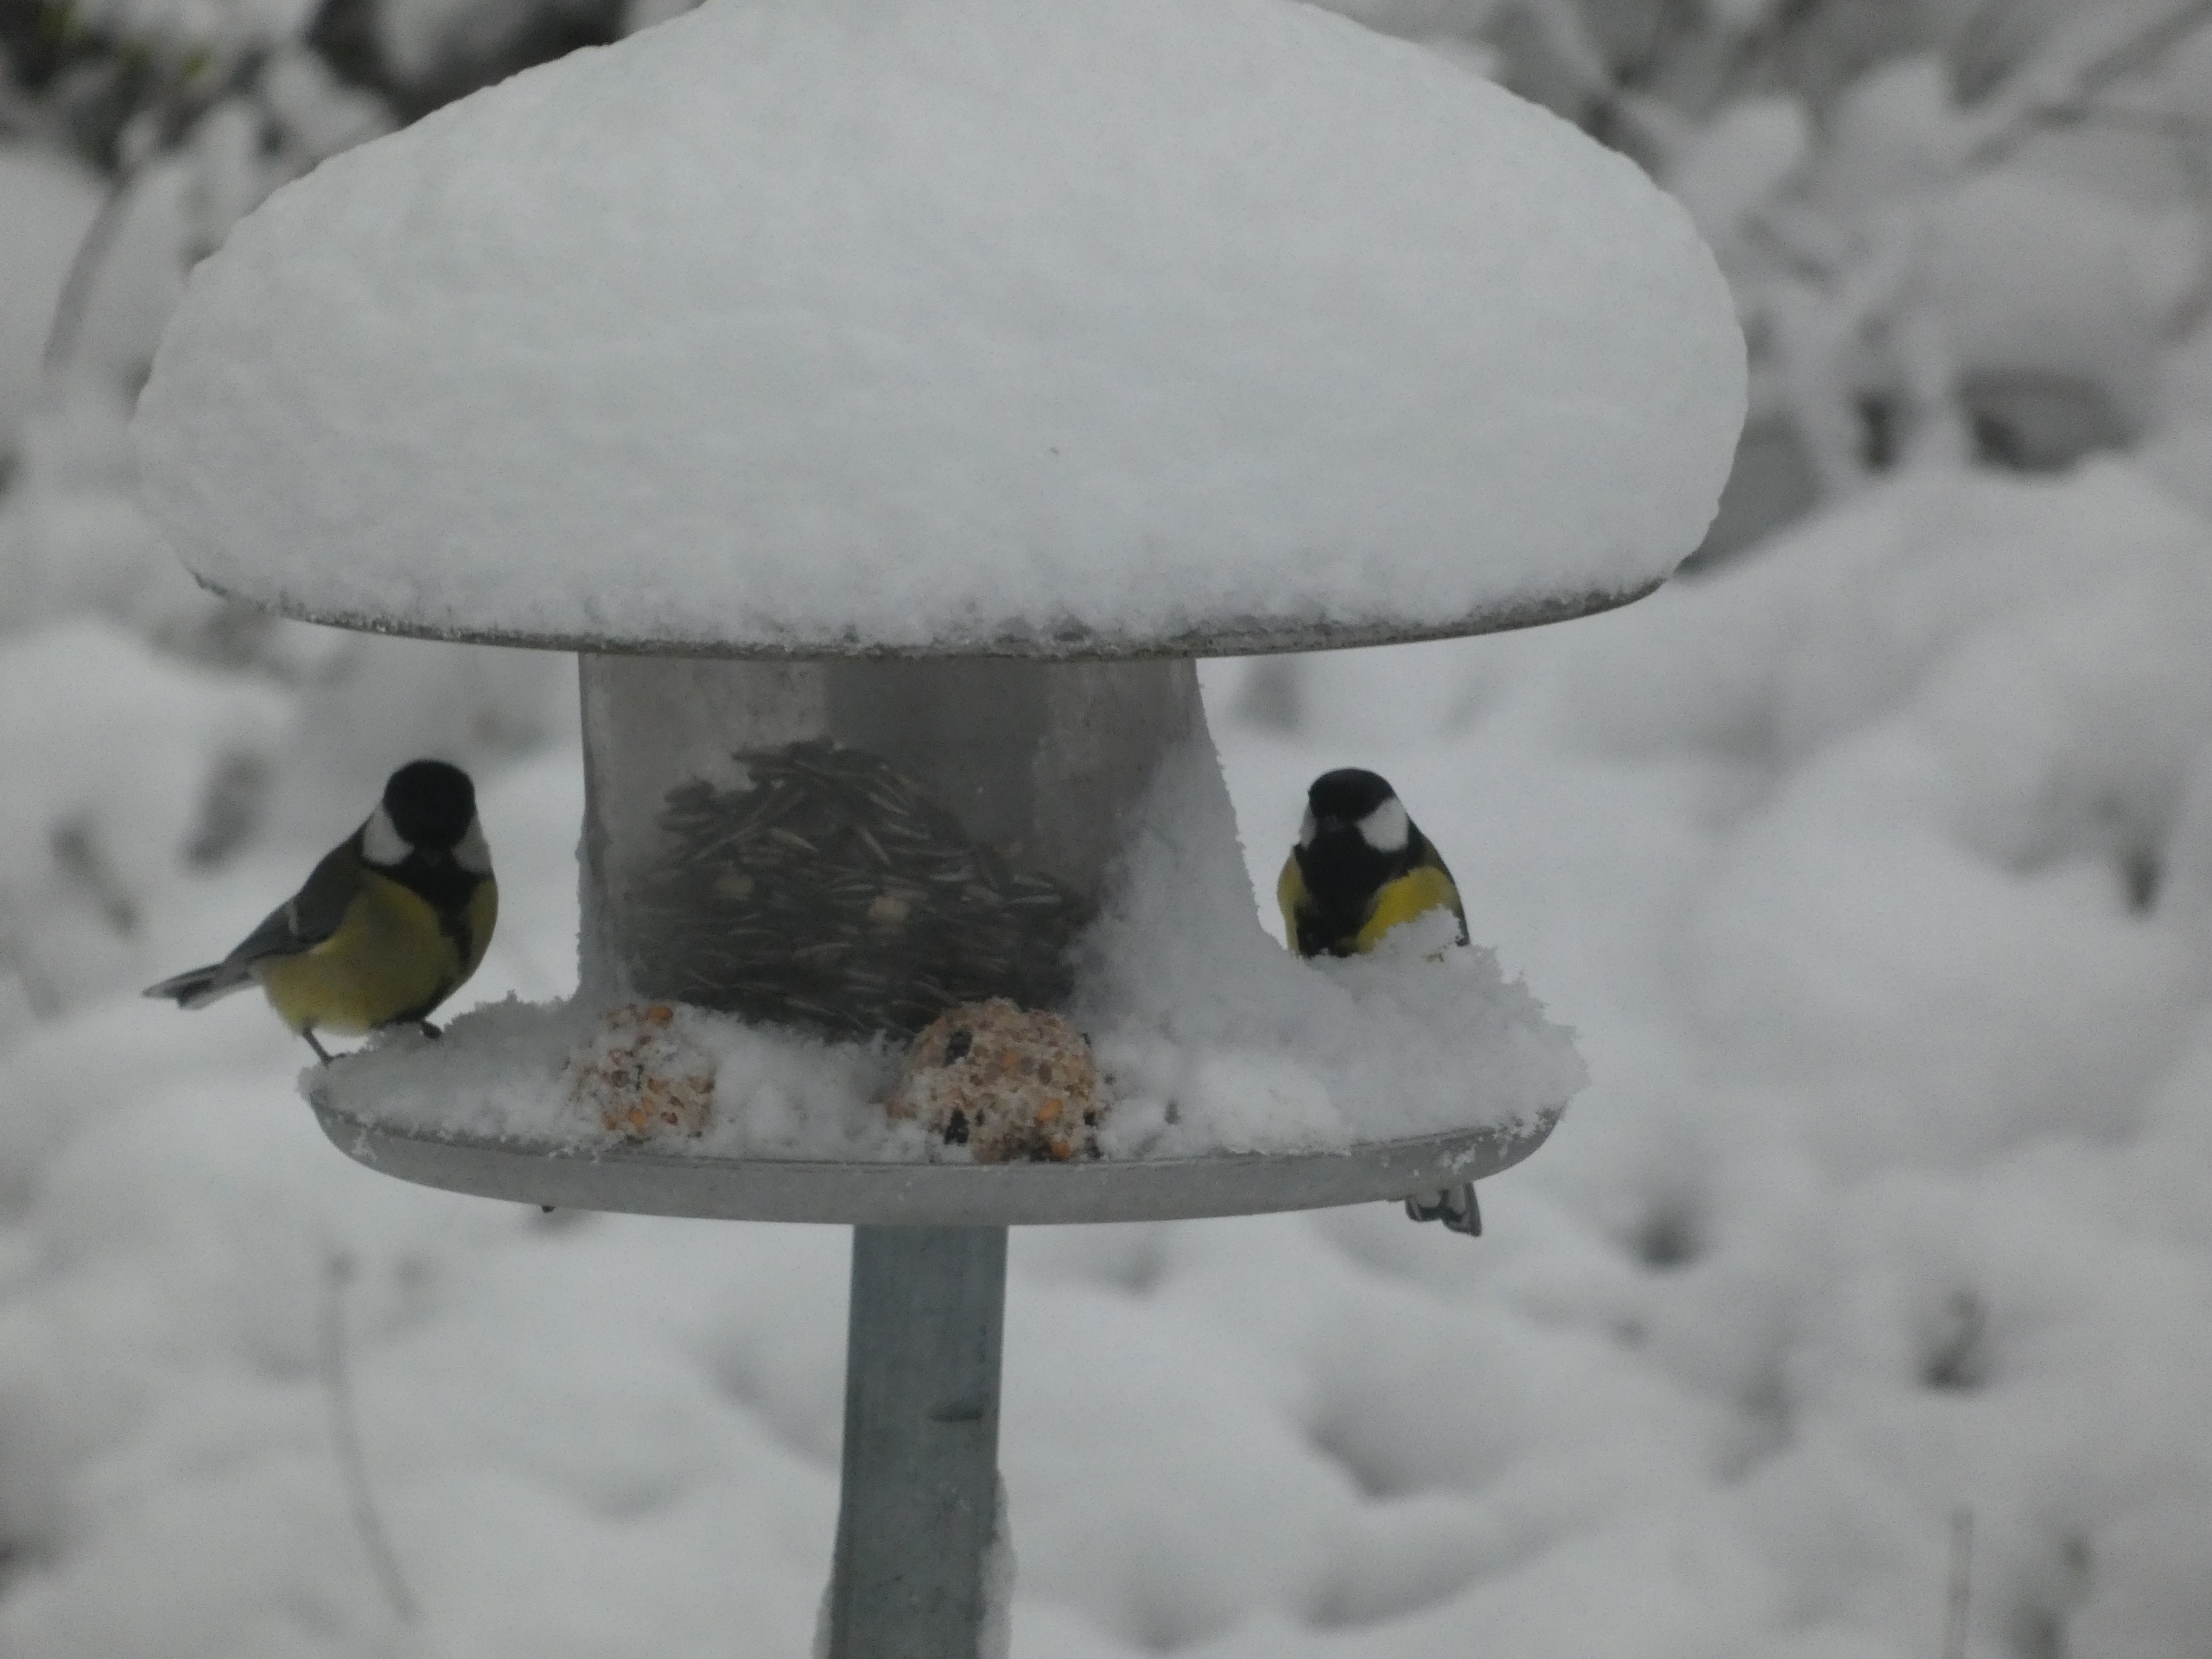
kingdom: Animalia
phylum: Chordata
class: Aves
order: Passeriformes
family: Paridae
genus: Parus
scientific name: Parus major
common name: Musvit
